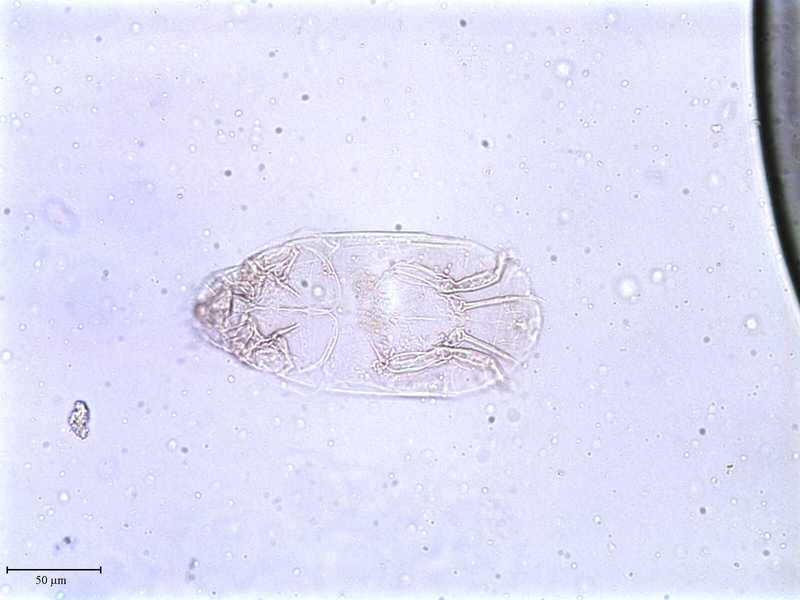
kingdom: Animalia
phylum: Arthropoda
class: Arachnida
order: Trombidiformes
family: Tarsonemidae
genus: Tarsonemus
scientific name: Tarsonemus interruptus
